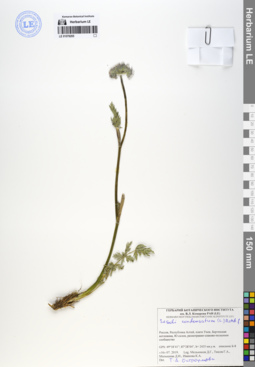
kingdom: Plantae
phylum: Tracheophyta
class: Magnoliopsida
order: Apiales
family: Apiaceae
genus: Seseli
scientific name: Seseli condensatum
